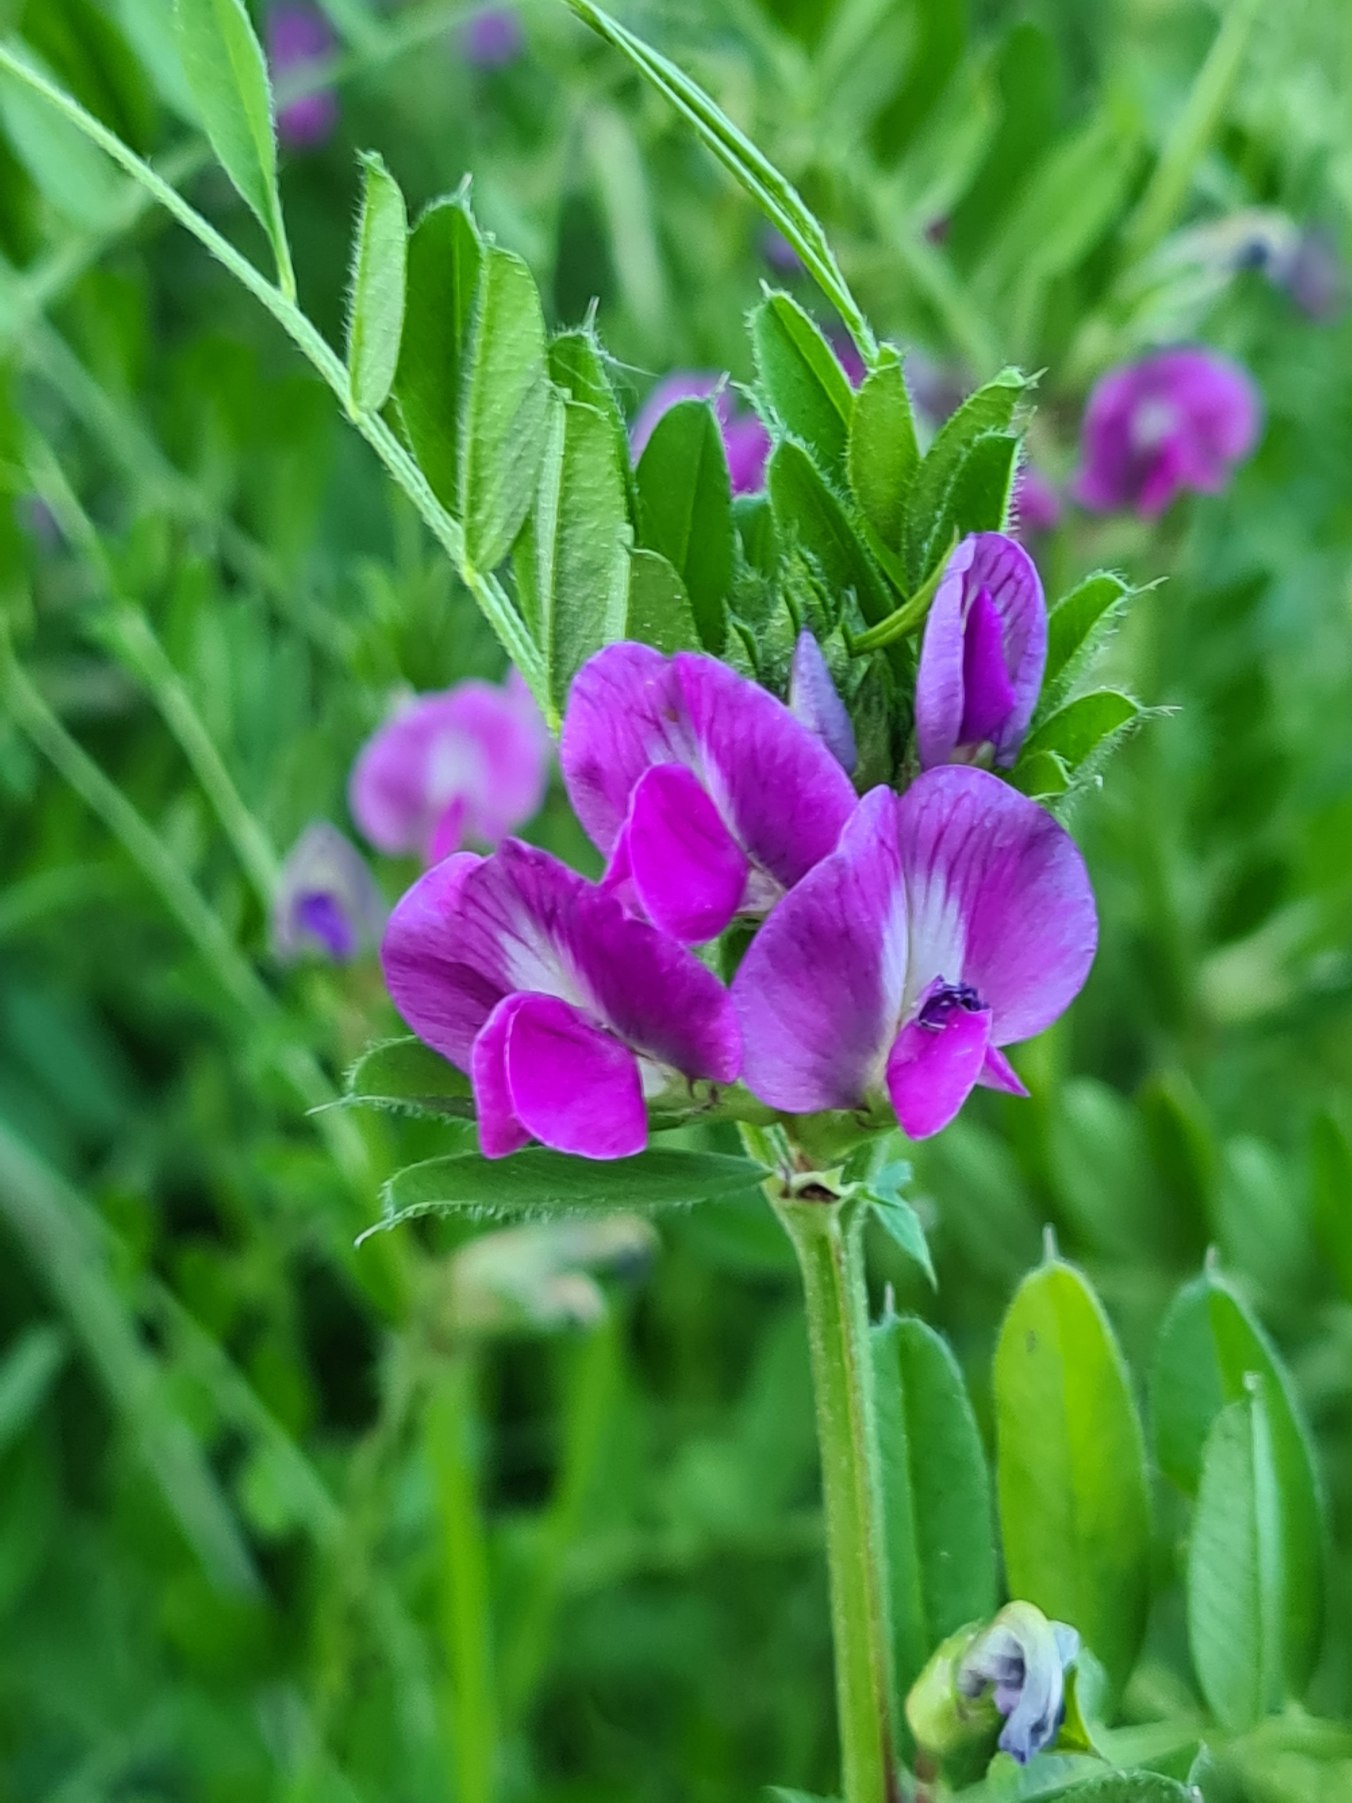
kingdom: Plantae
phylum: Tracheophyta
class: Magnoliopsida
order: Fabales
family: Fabaceae
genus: Vicia
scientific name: Vicia sativa
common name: Foder-vikke
